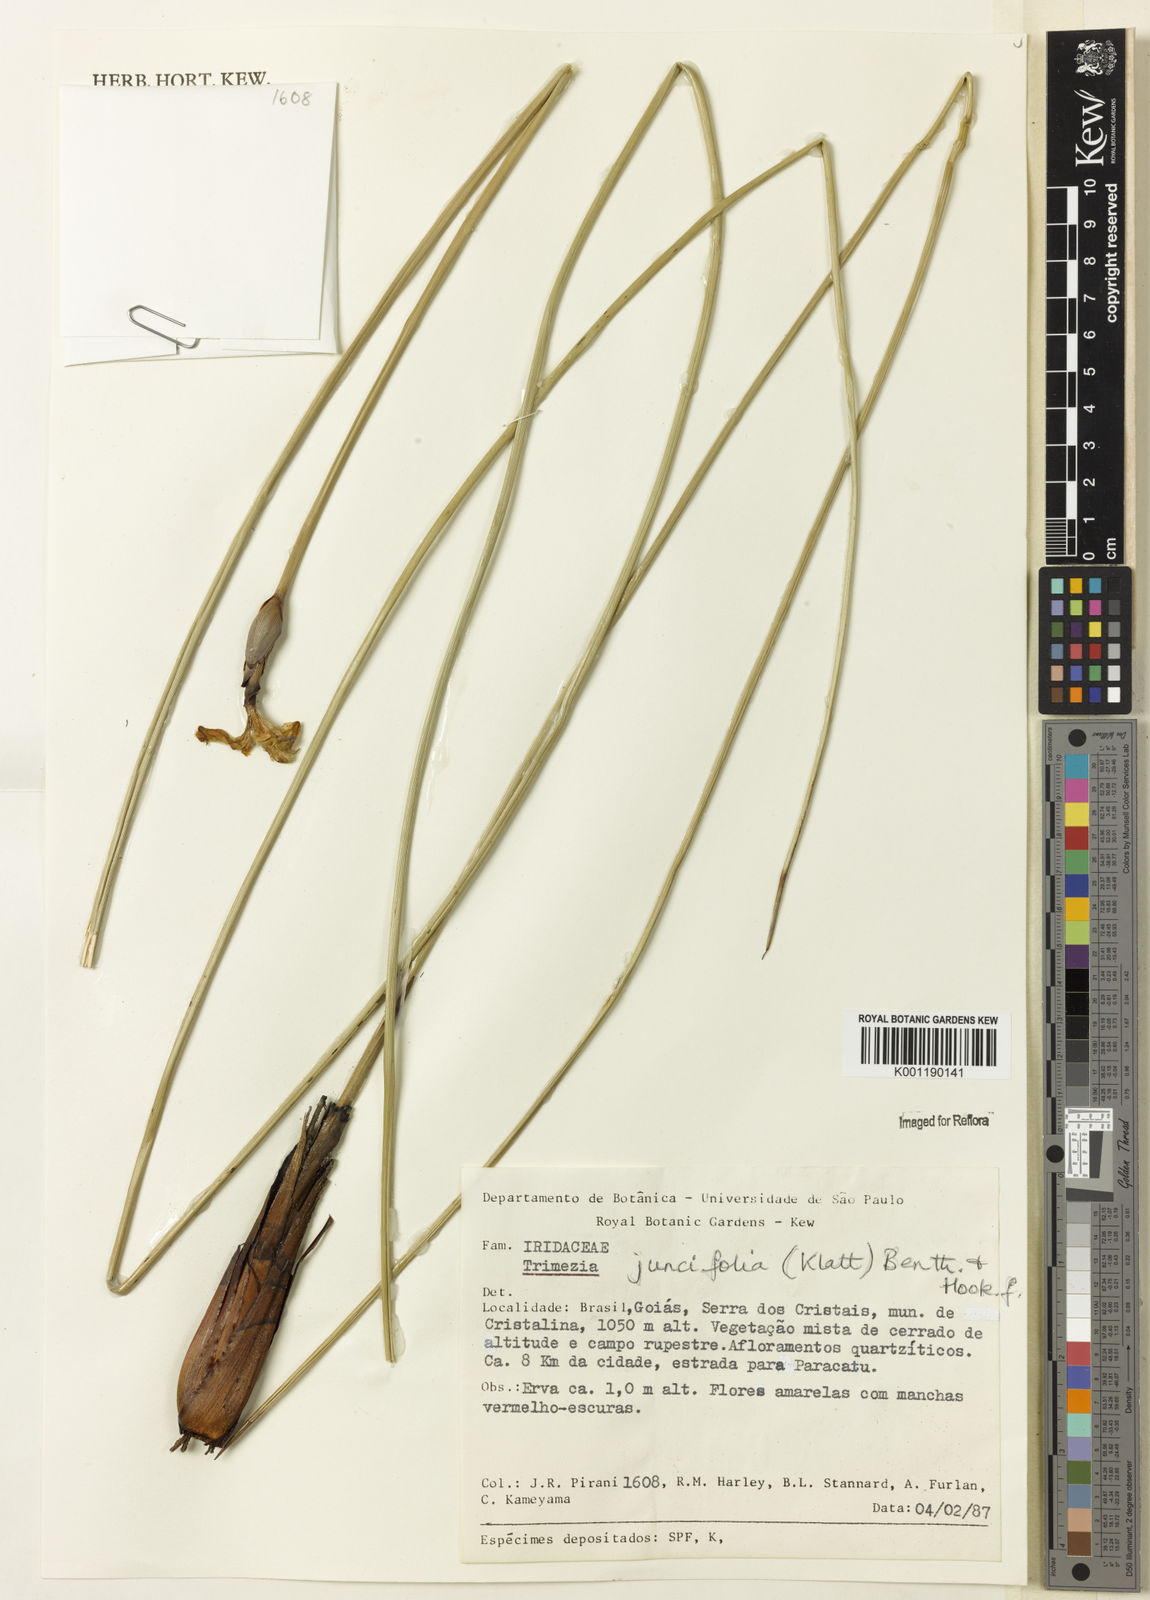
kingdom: Plantae
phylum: Tracheophyta
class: Liliopsida
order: Asparagales
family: Iridaceae
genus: Trimezia
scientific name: Trimezia juncifolia
